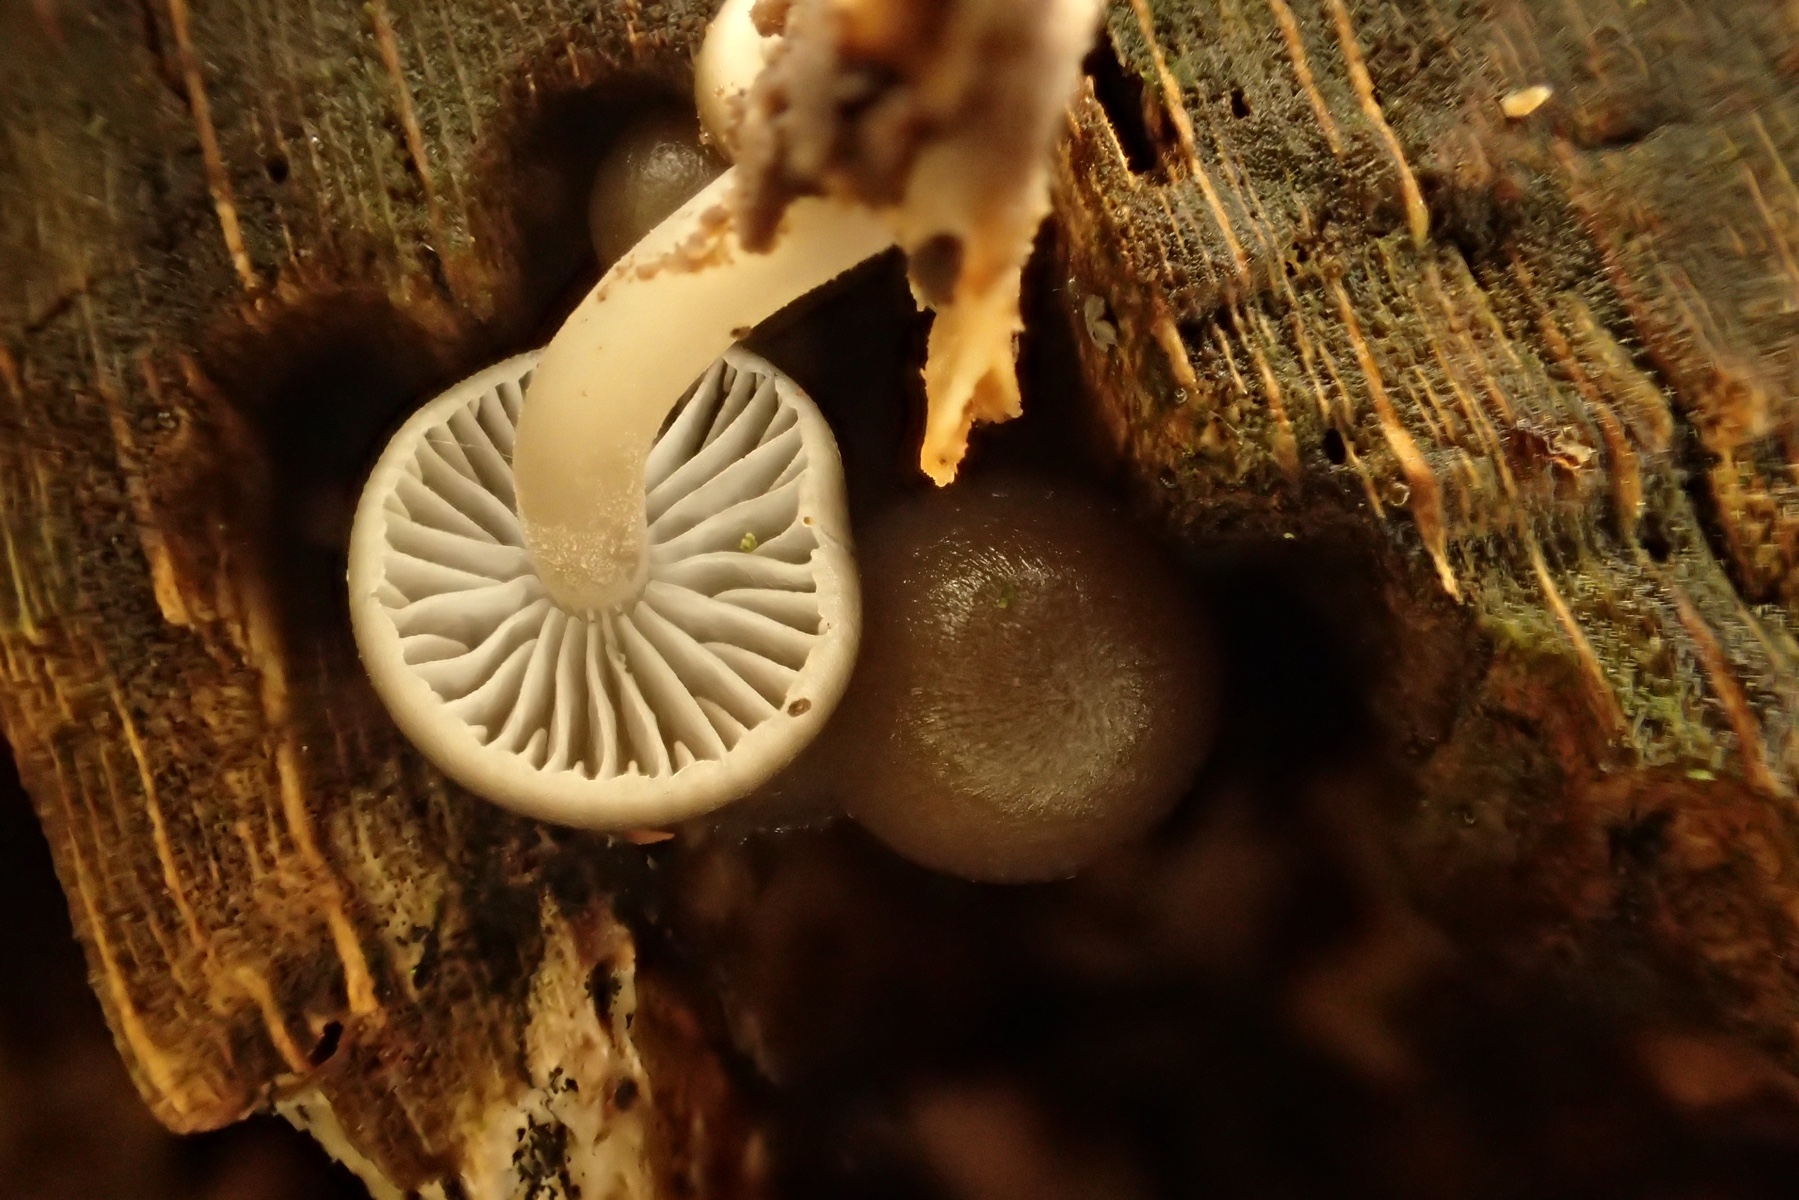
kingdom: Fungi
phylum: Basidiomycota
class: Agaricomycetes
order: Agaricales
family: Mycenaceae
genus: Mycena
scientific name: Mycena tintinnabulum
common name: vinter-huesvamp
